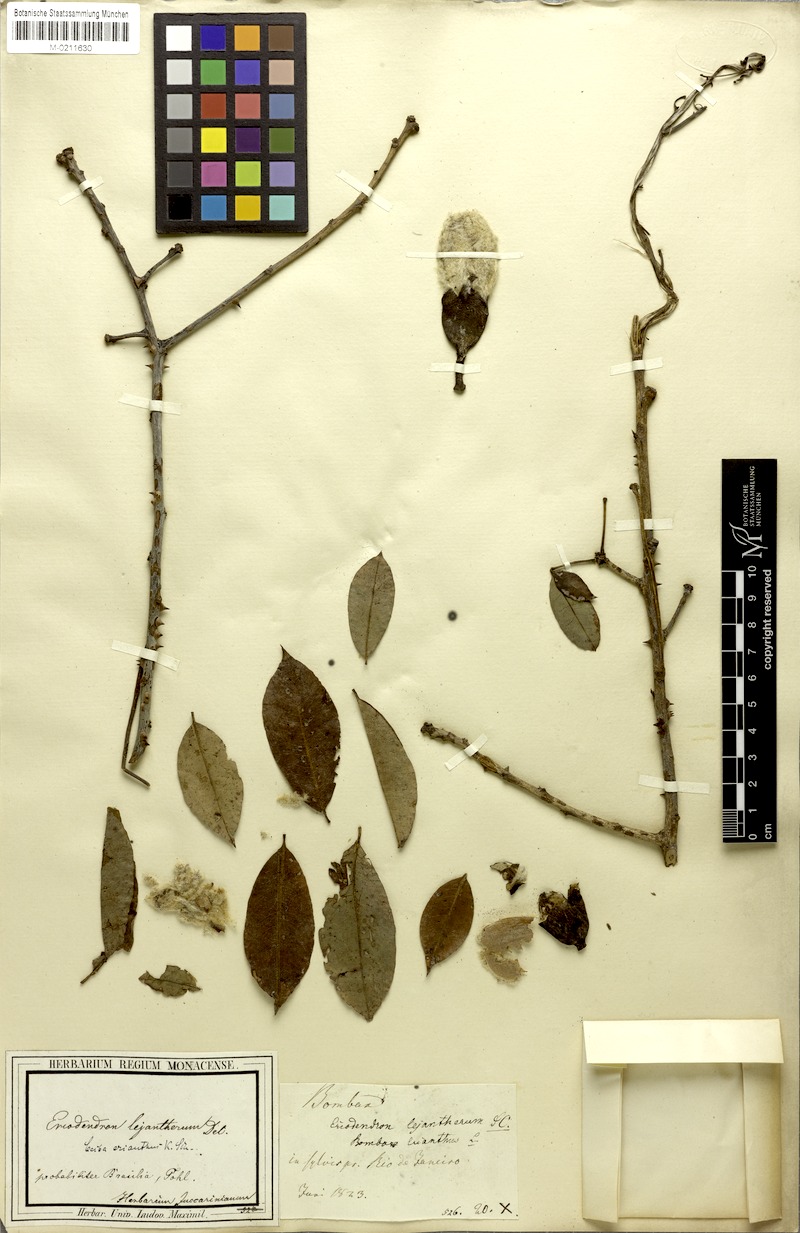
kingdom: Plantae
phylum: Tracheophyta
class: Magnoliopsida
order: Malvales
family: Malvaceae
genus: Ceiba
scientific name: Ceiba erianthos
